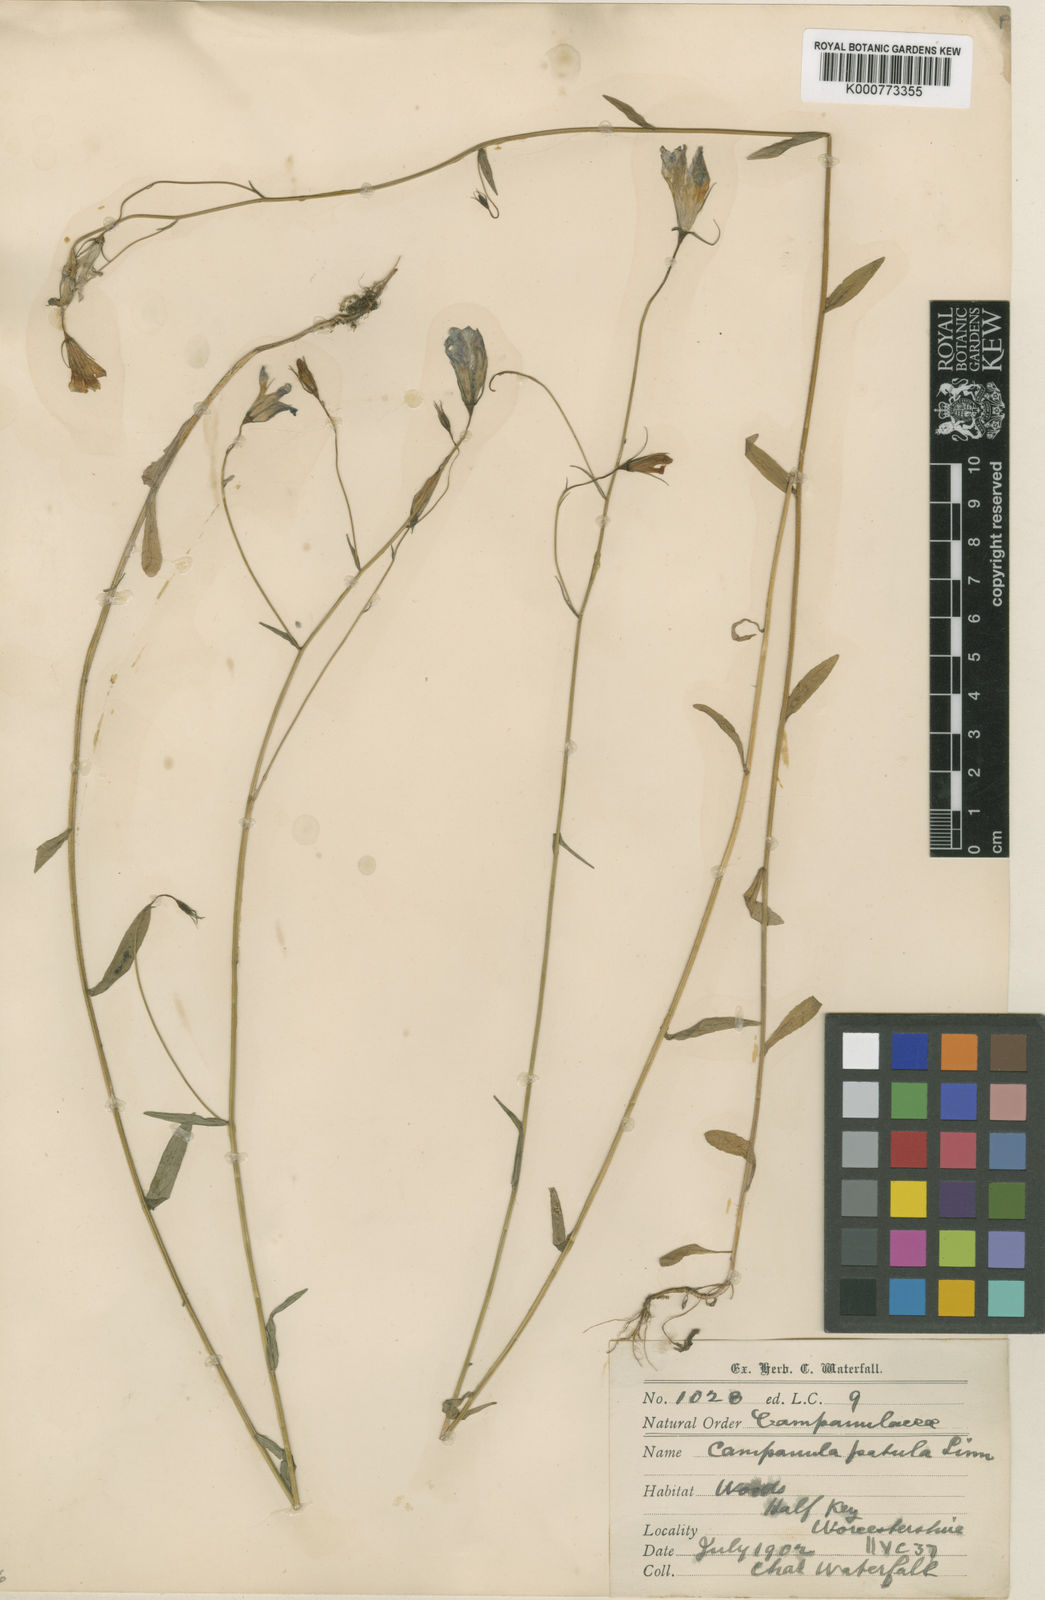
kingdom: Plantae
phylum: Tracheophyta
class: Magnoliopsida
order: Asterales
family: Campanulaceae
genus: Campanula
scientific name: Campanula patula
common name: Spreading bellflower
